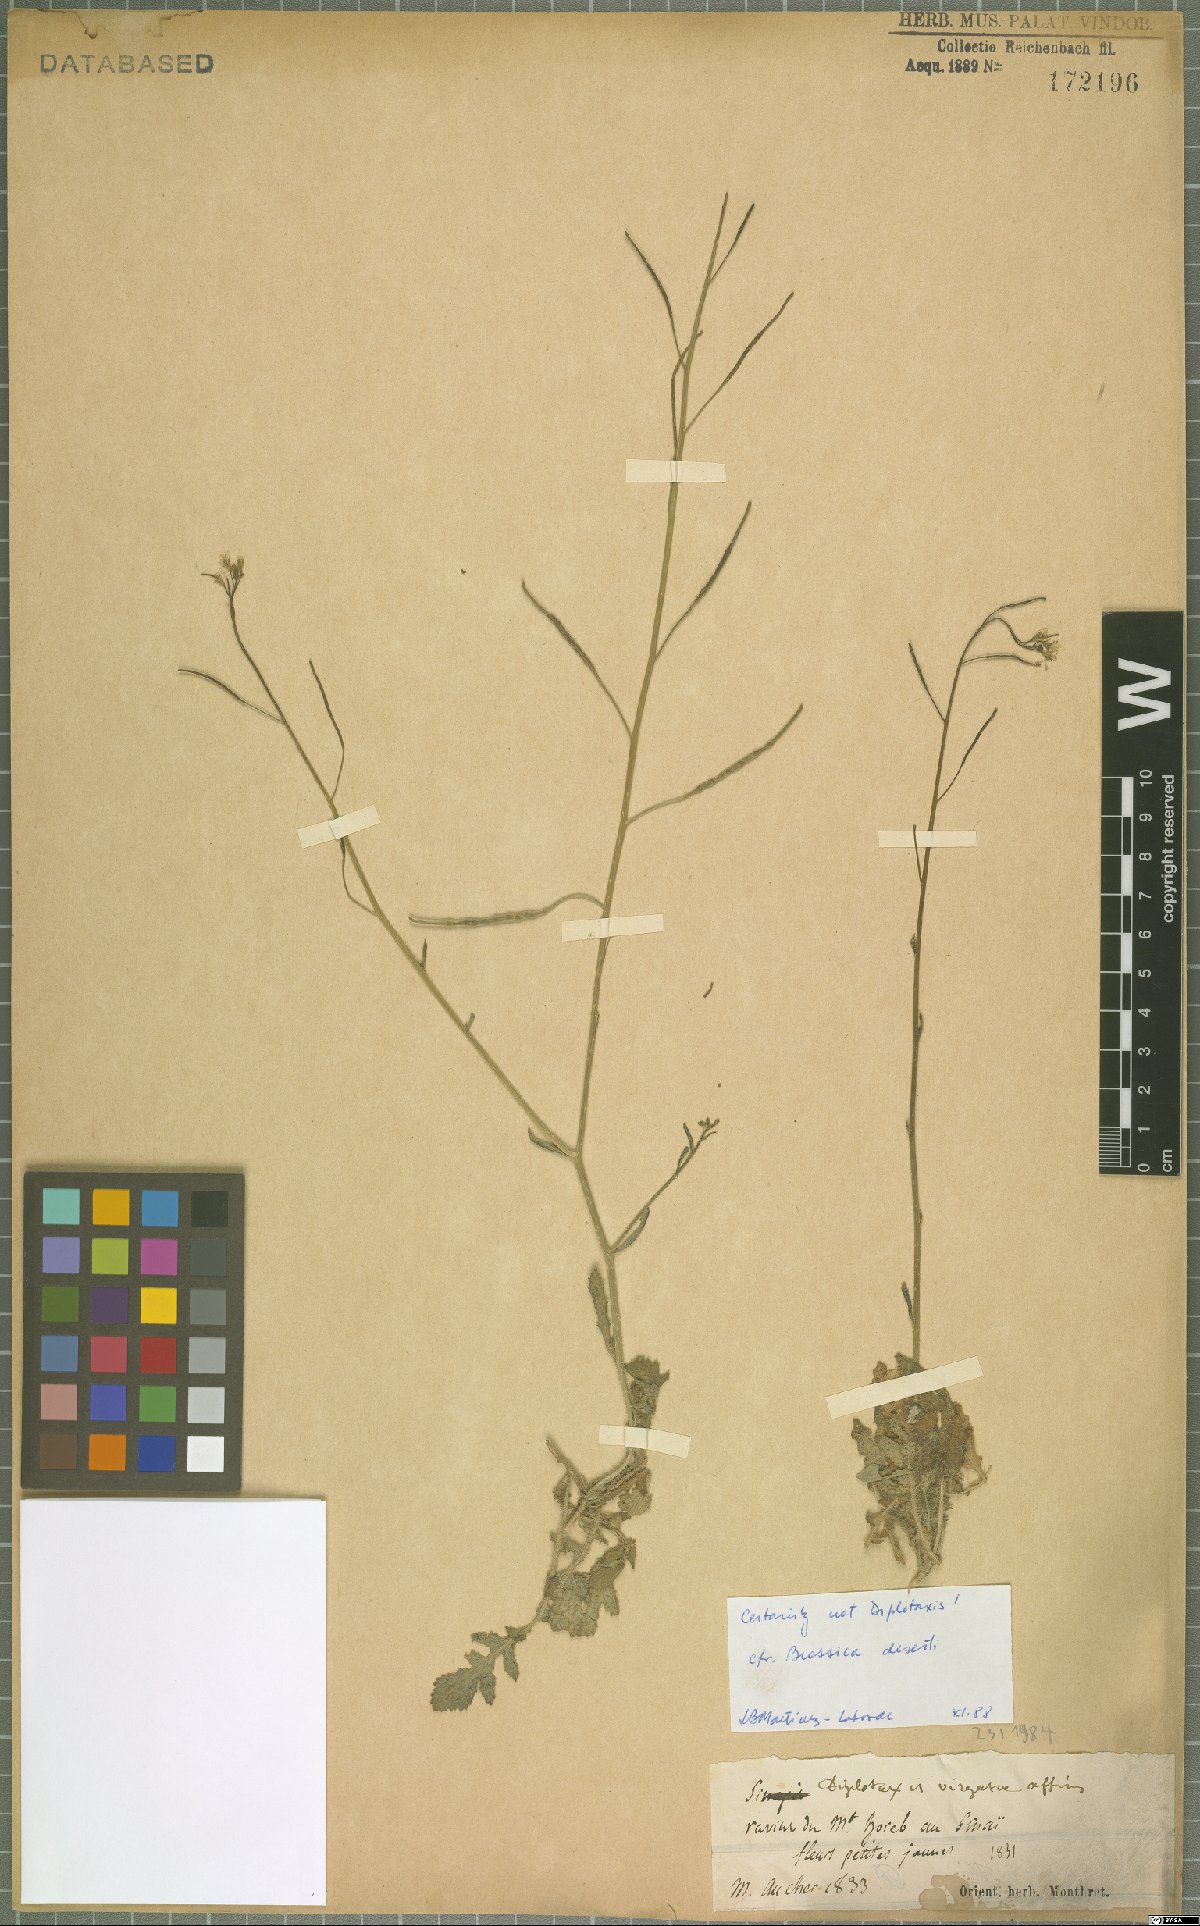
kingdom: Plantae
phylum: Tracheophyta
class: Magnoliopsida
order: Brassicales
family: Brassicaceae
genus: Brassica
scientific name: Brassica tournefortii
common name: Pale cabbage
